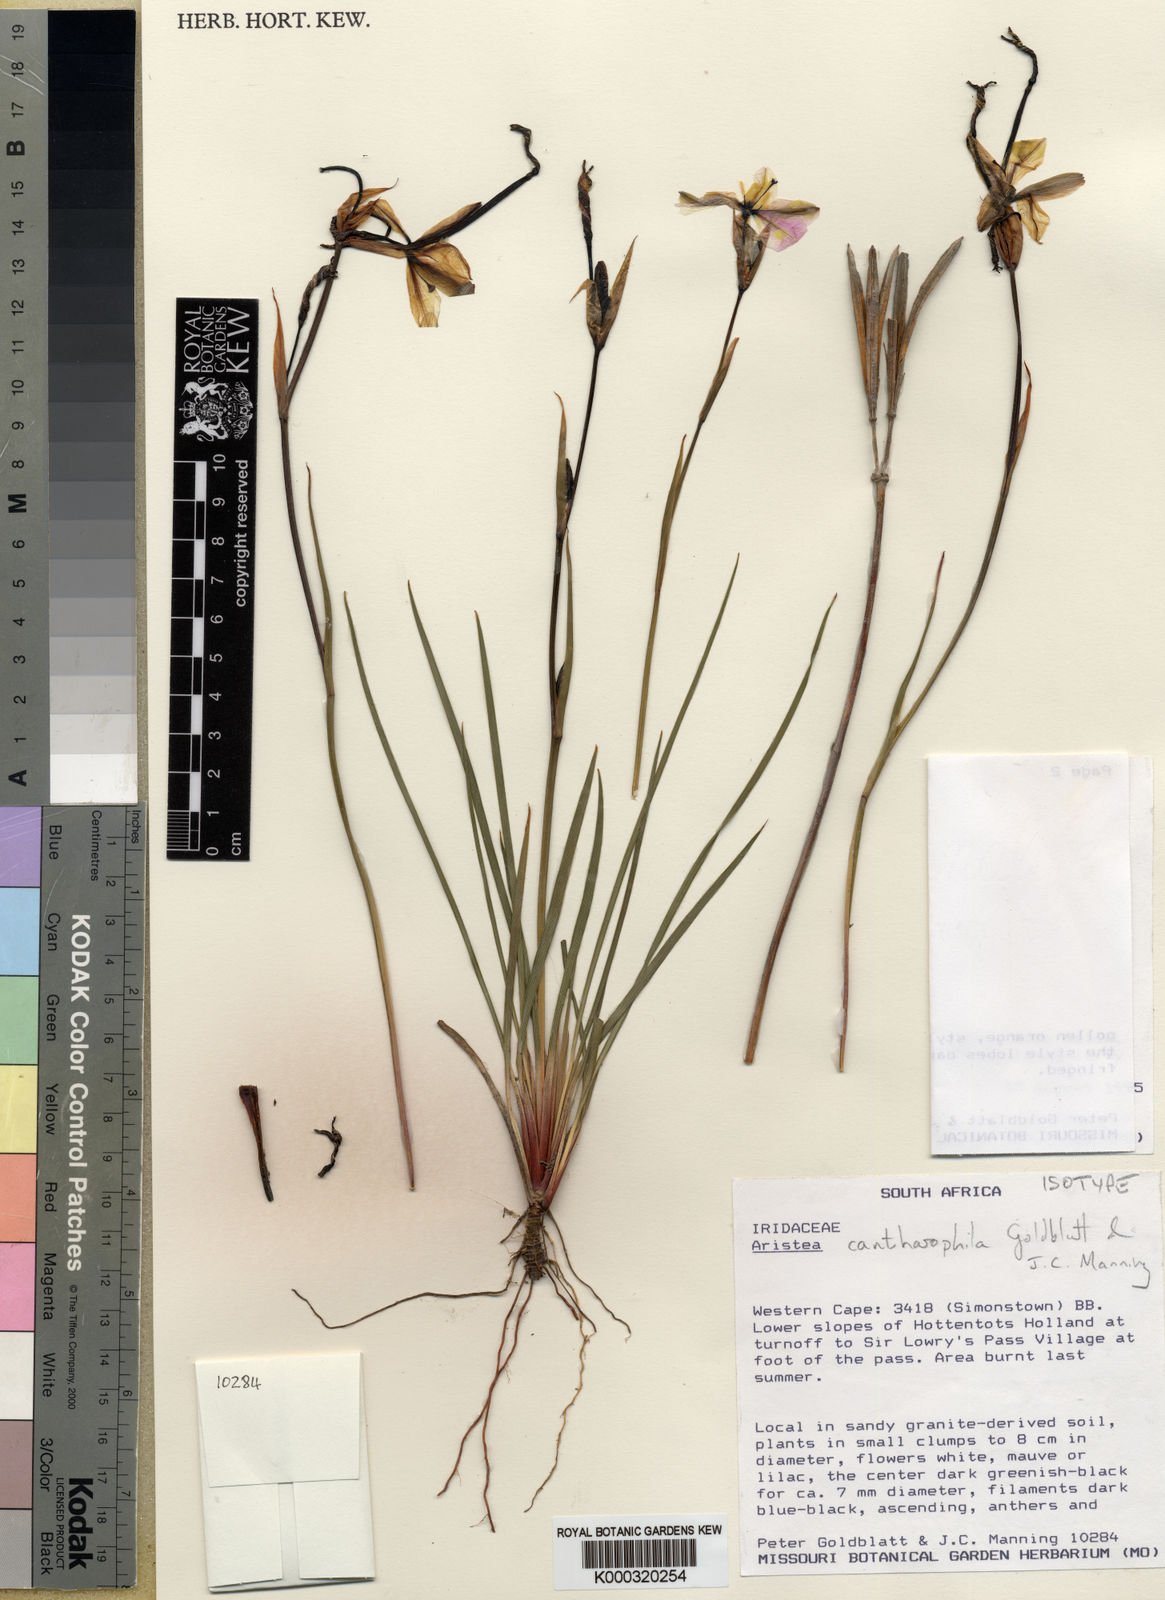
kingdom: Plantae
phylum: Tracheophyta
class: Liliopsida
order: Asparagales
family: Iridaceae
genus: Aristea
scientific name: Aristea cantharophila
